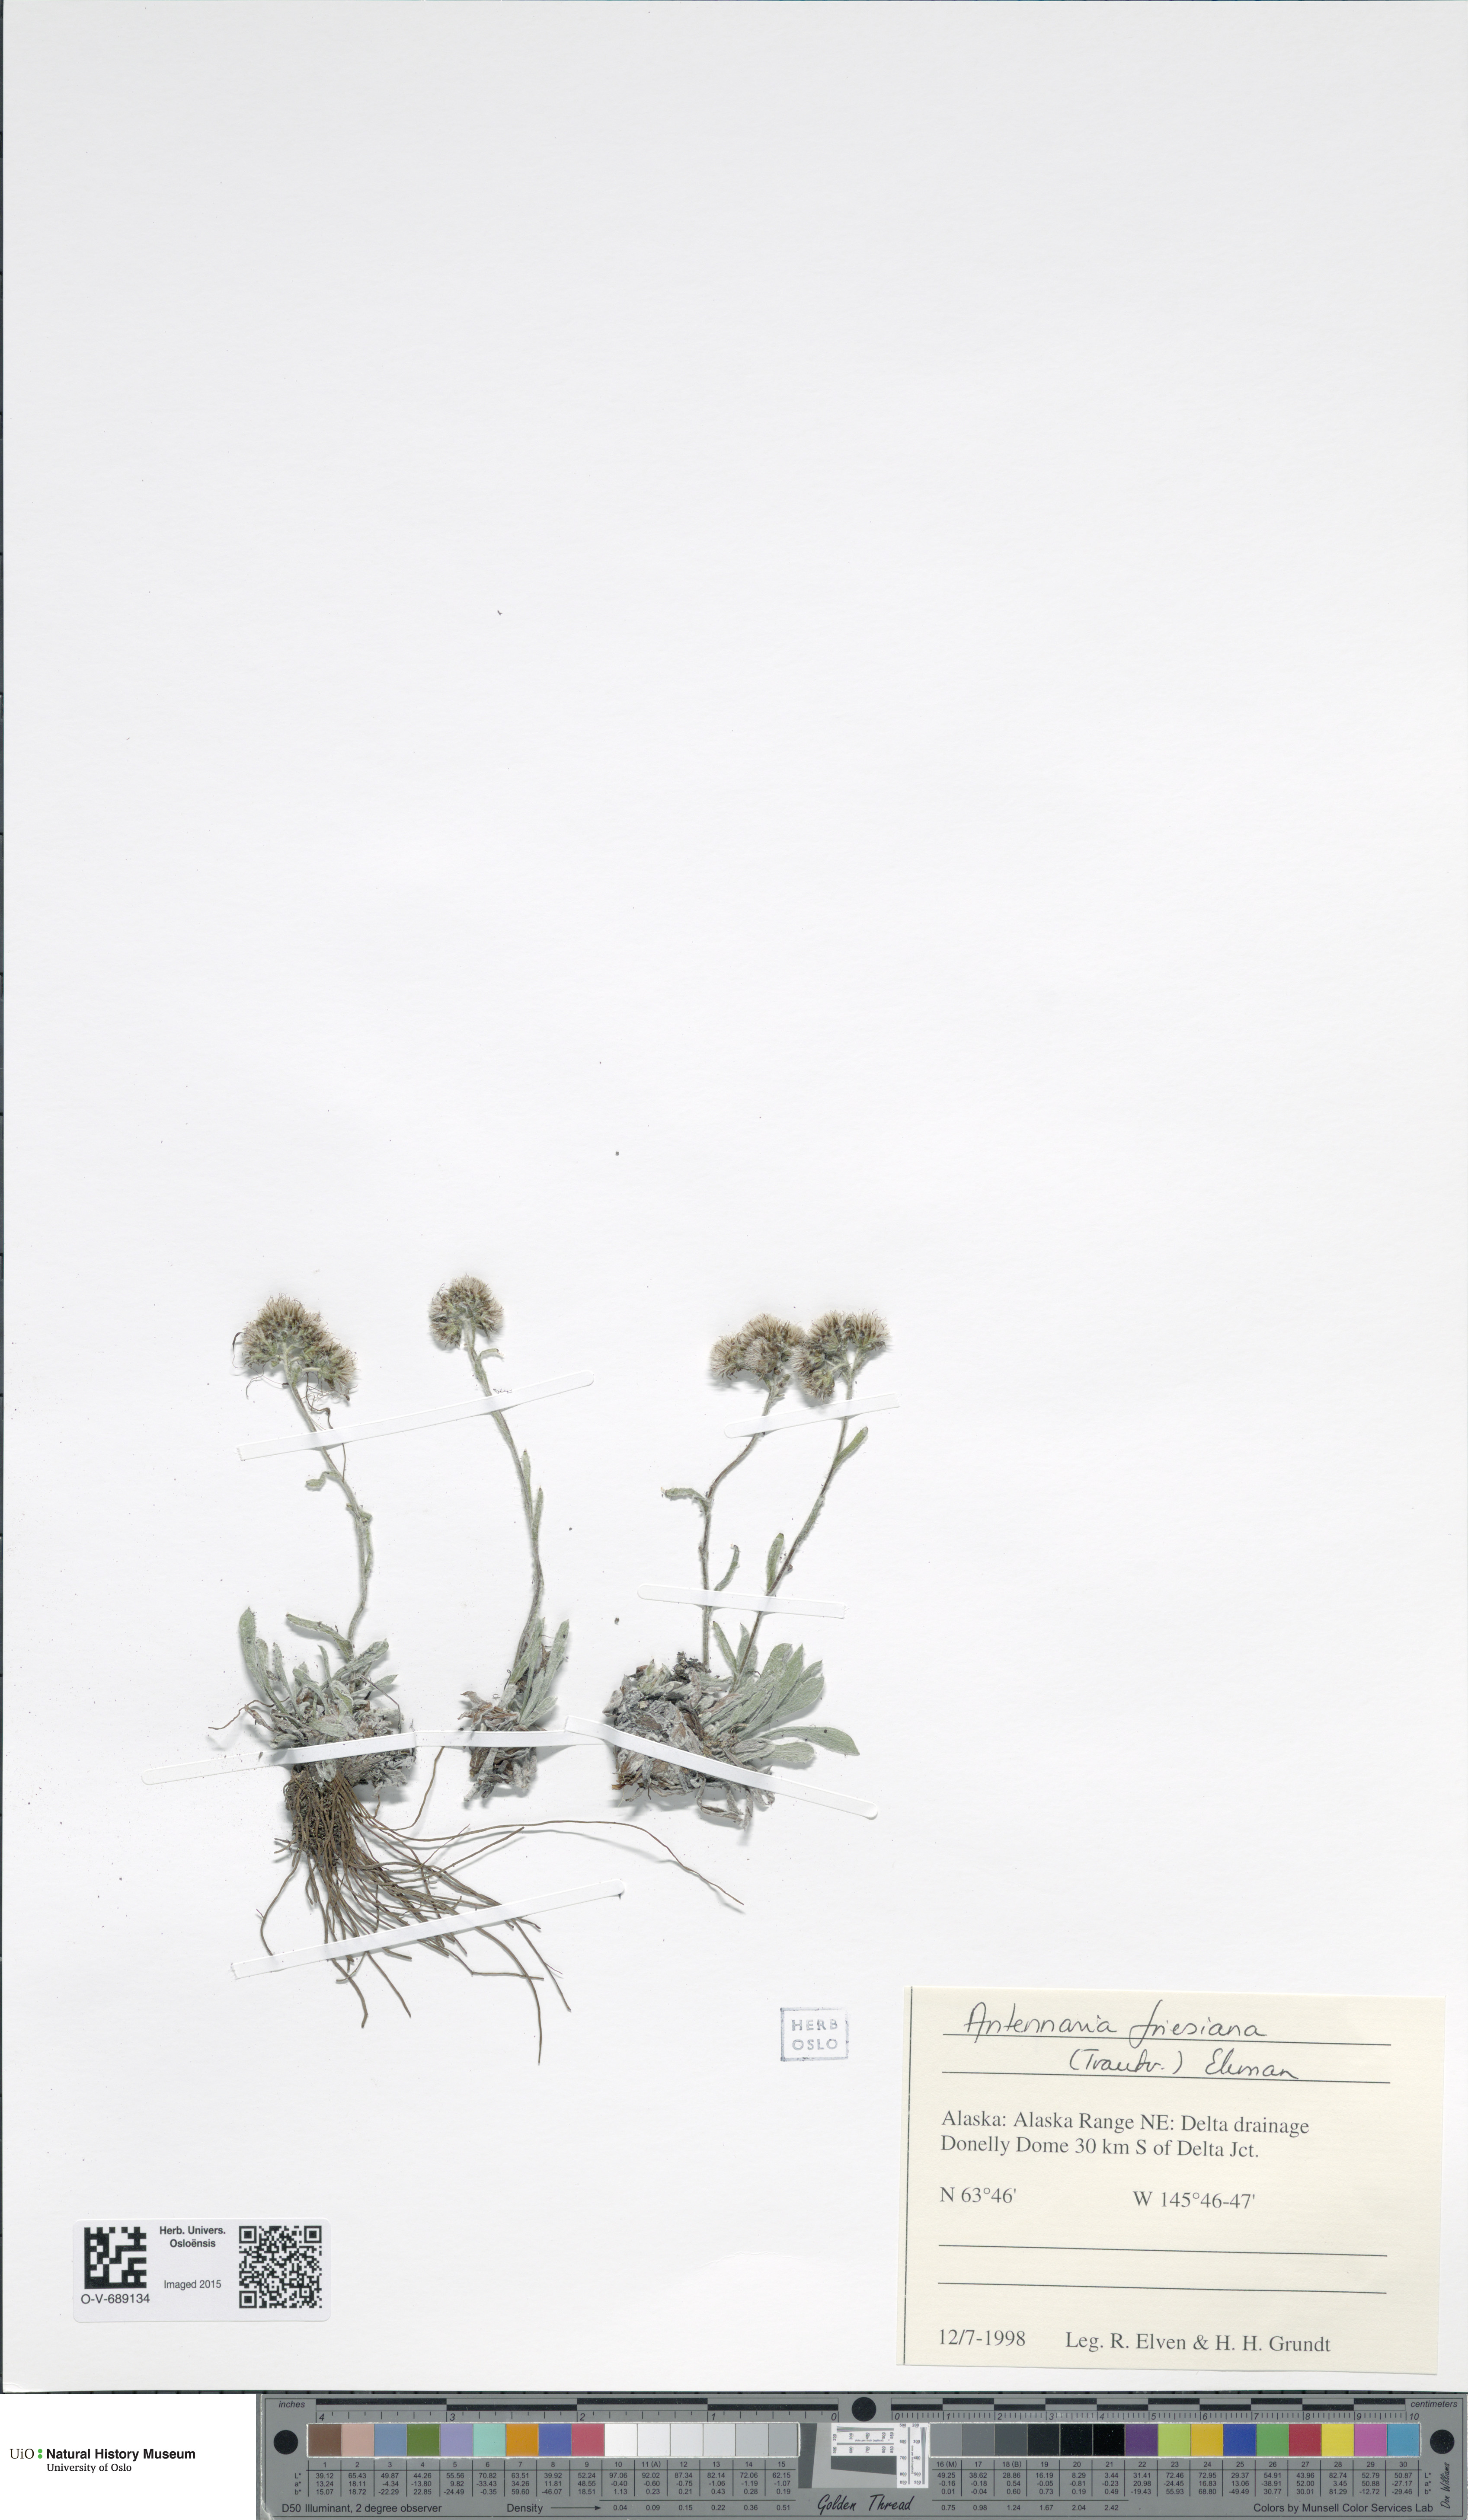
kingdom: Plantae
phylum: Tracheophyta
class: Magnoliopsida
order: Asterales
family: Asteraceae
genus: Antennaria
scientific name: Antennaria friesiana
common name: Fries' pussytoes
